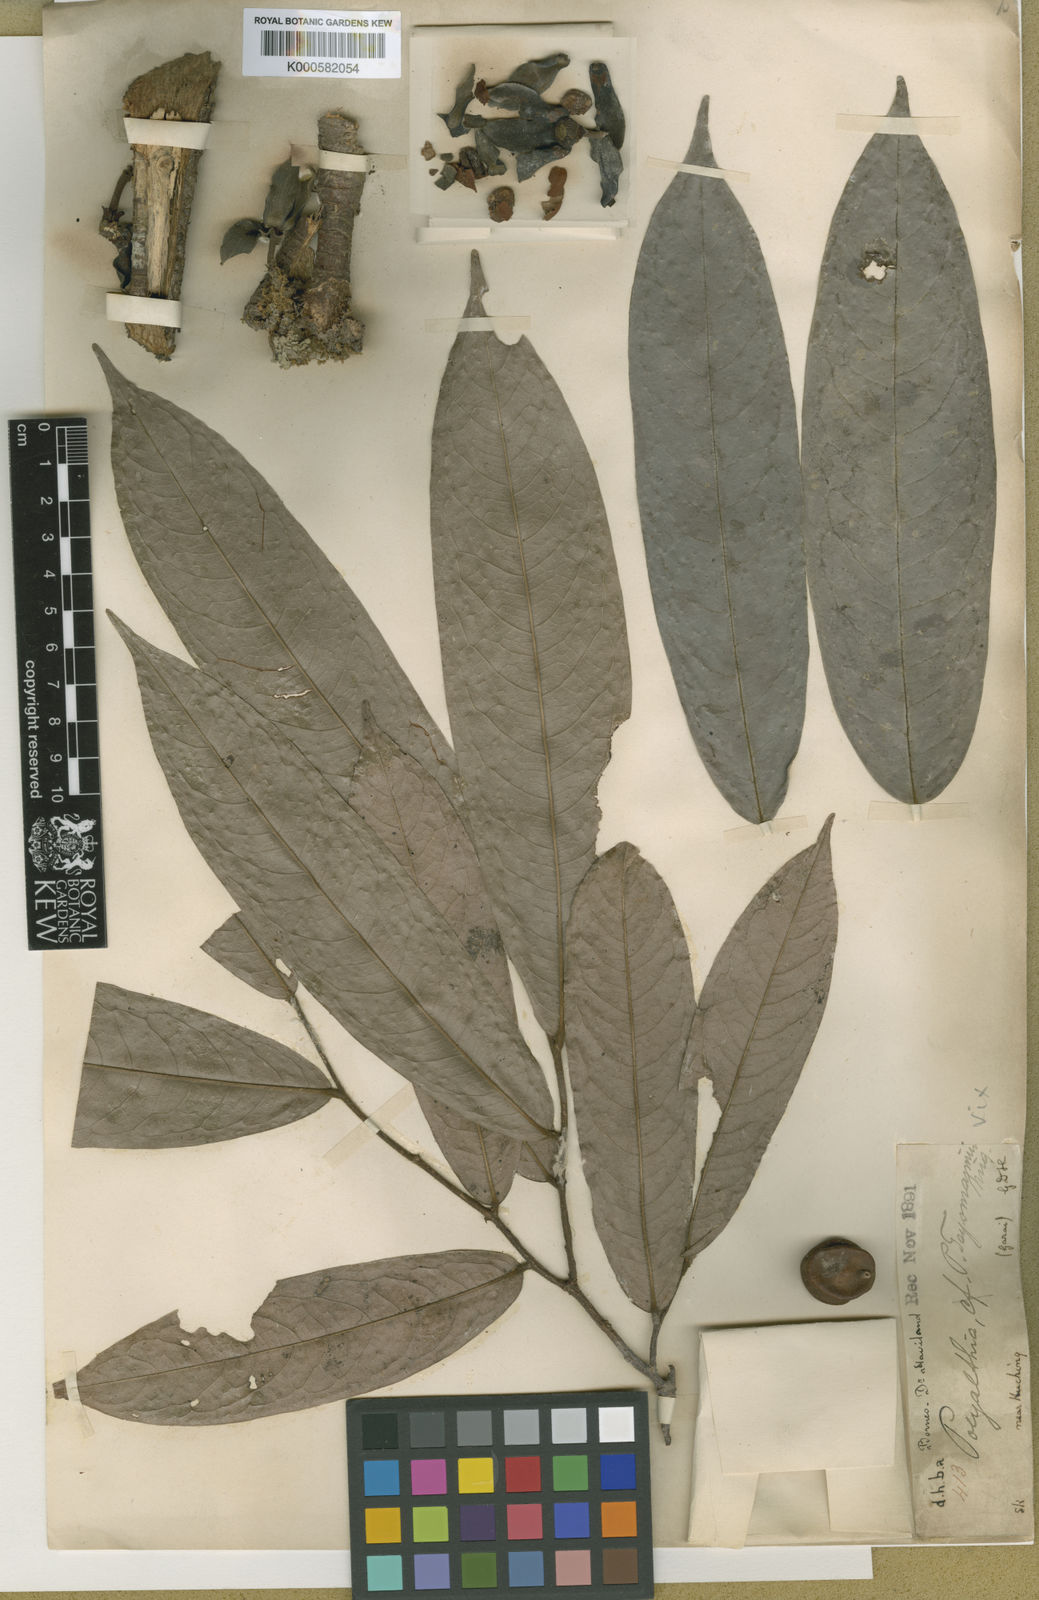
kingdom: Plantae
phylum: Tracheophyta
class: Magnoliopsida
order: Magnoliales
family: Annonaceae
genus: Polyalthia
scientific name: Polyalthia trochilia
